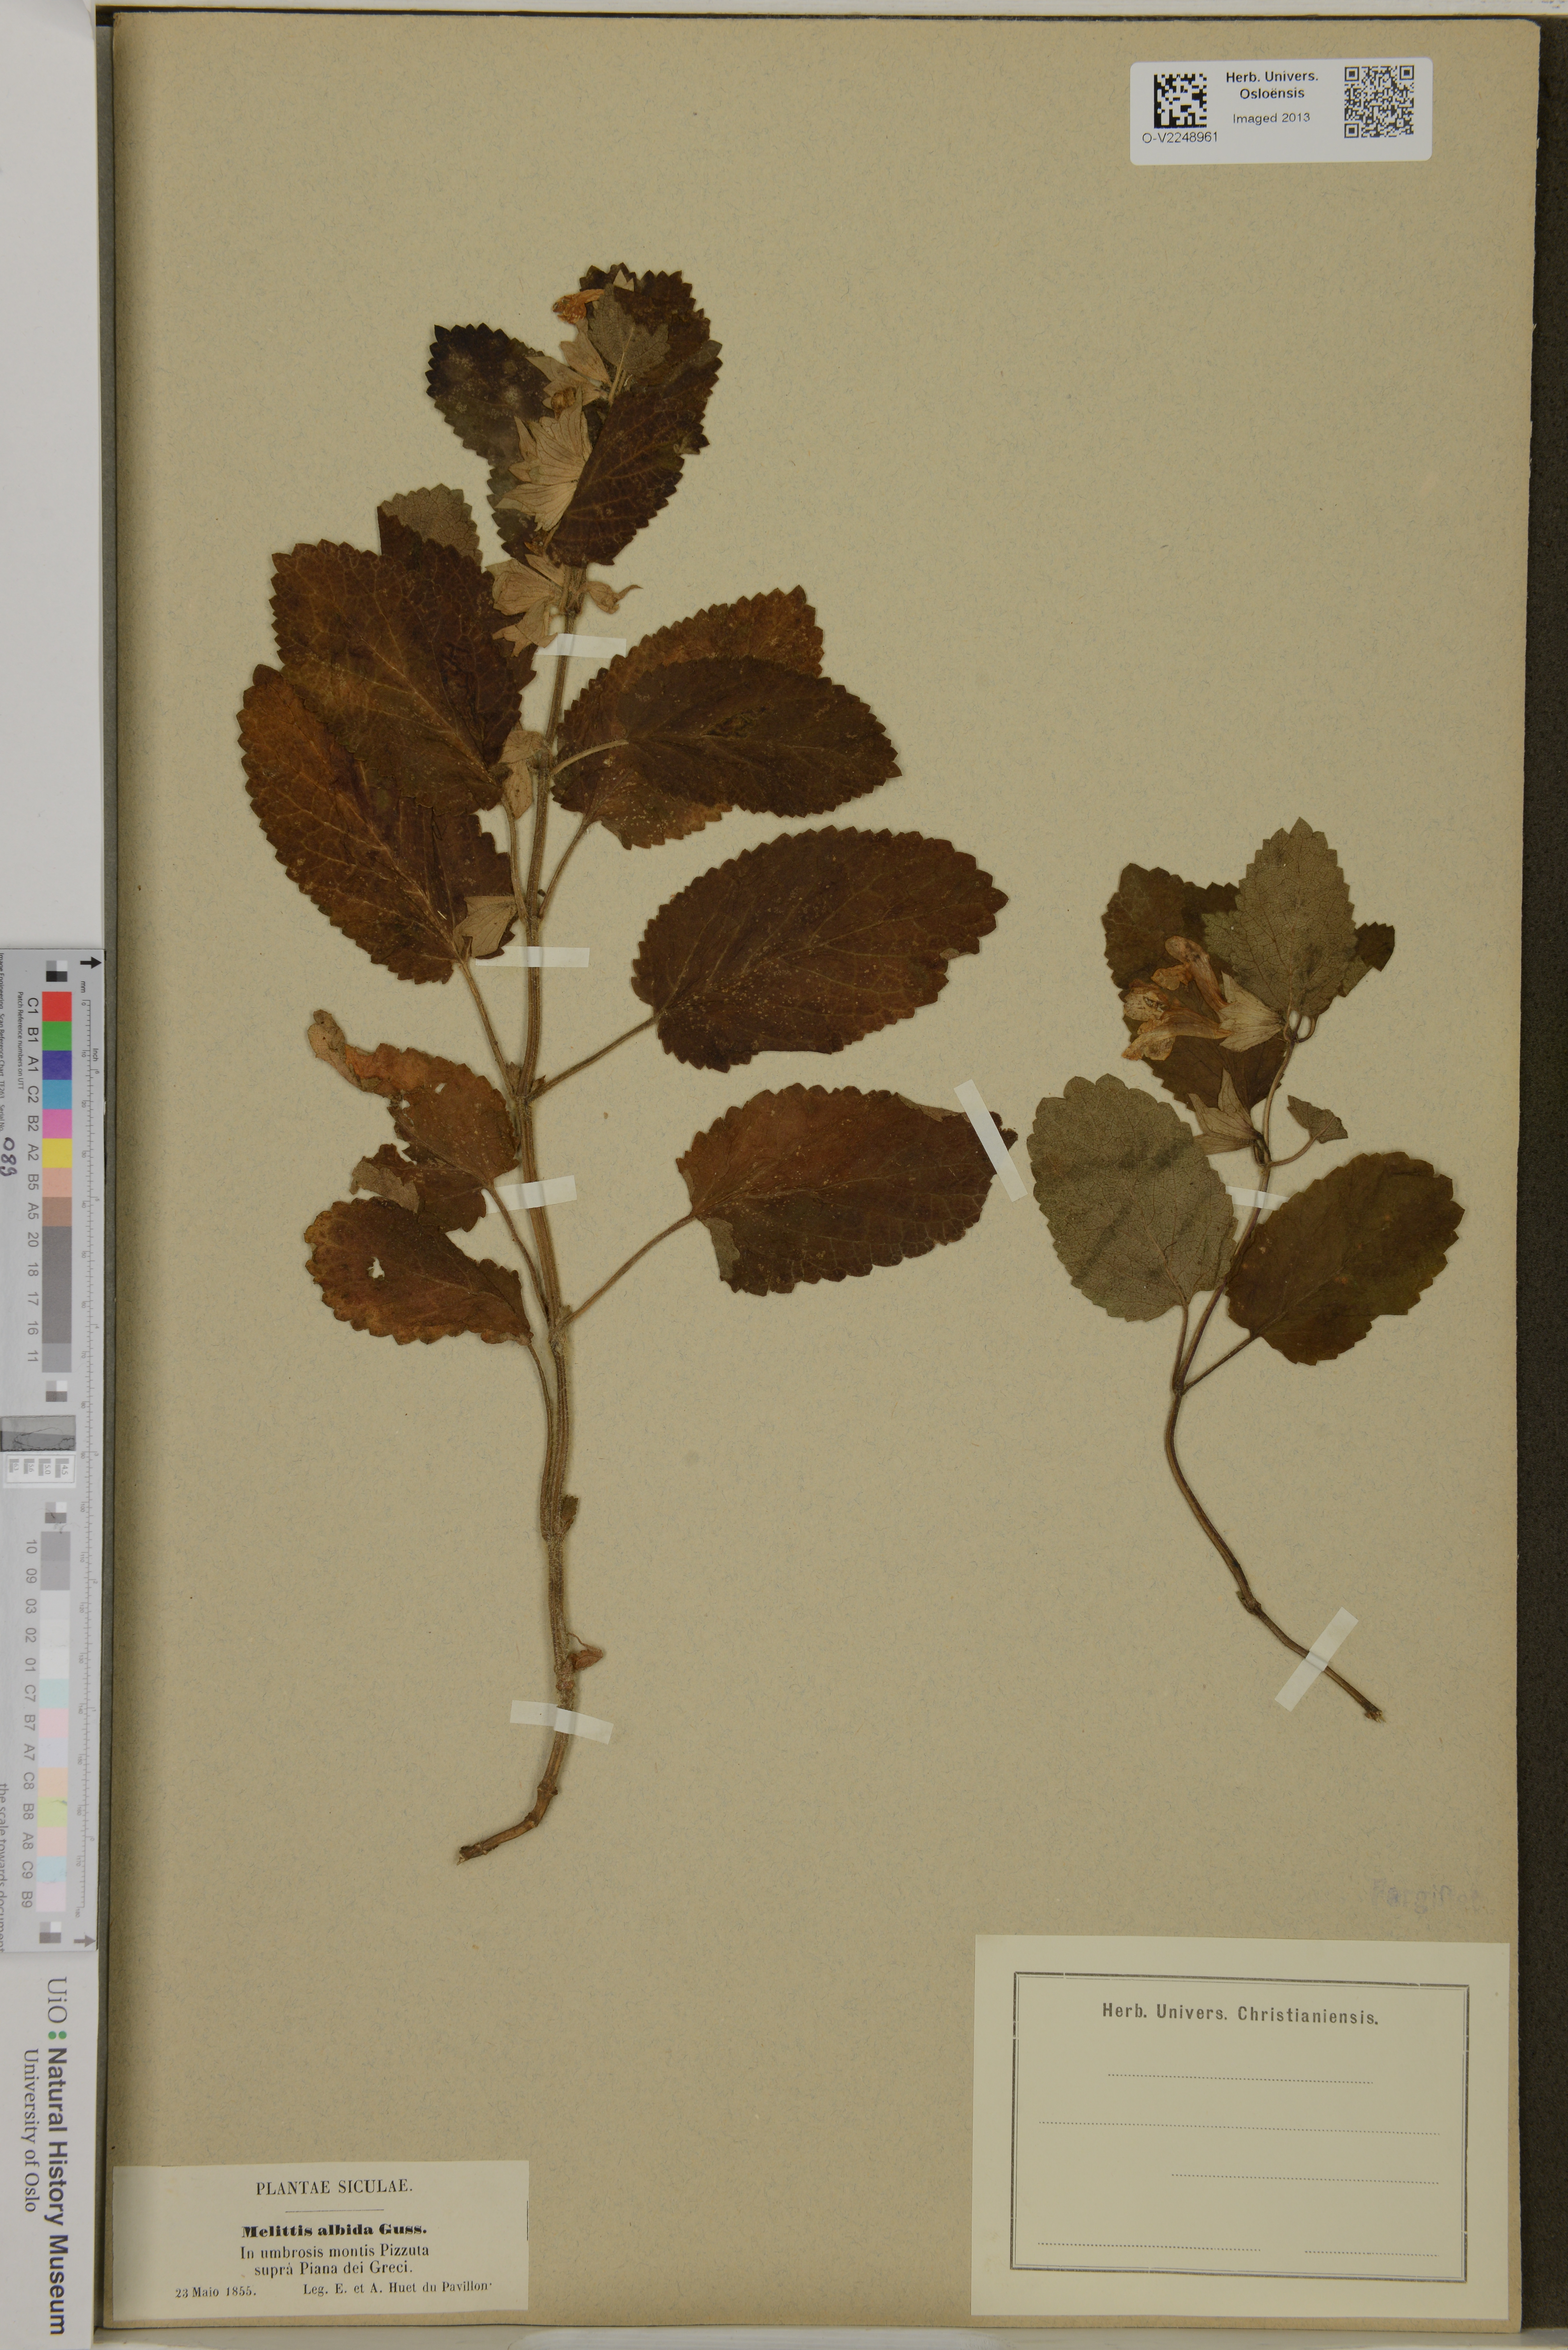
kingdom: Plantae
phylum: Tracheophyta
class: Magnoliopsida
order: Lamiales
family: Lamiaceae
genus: Melittis
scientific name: Melittis melissophyllum
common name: Bastard balm
